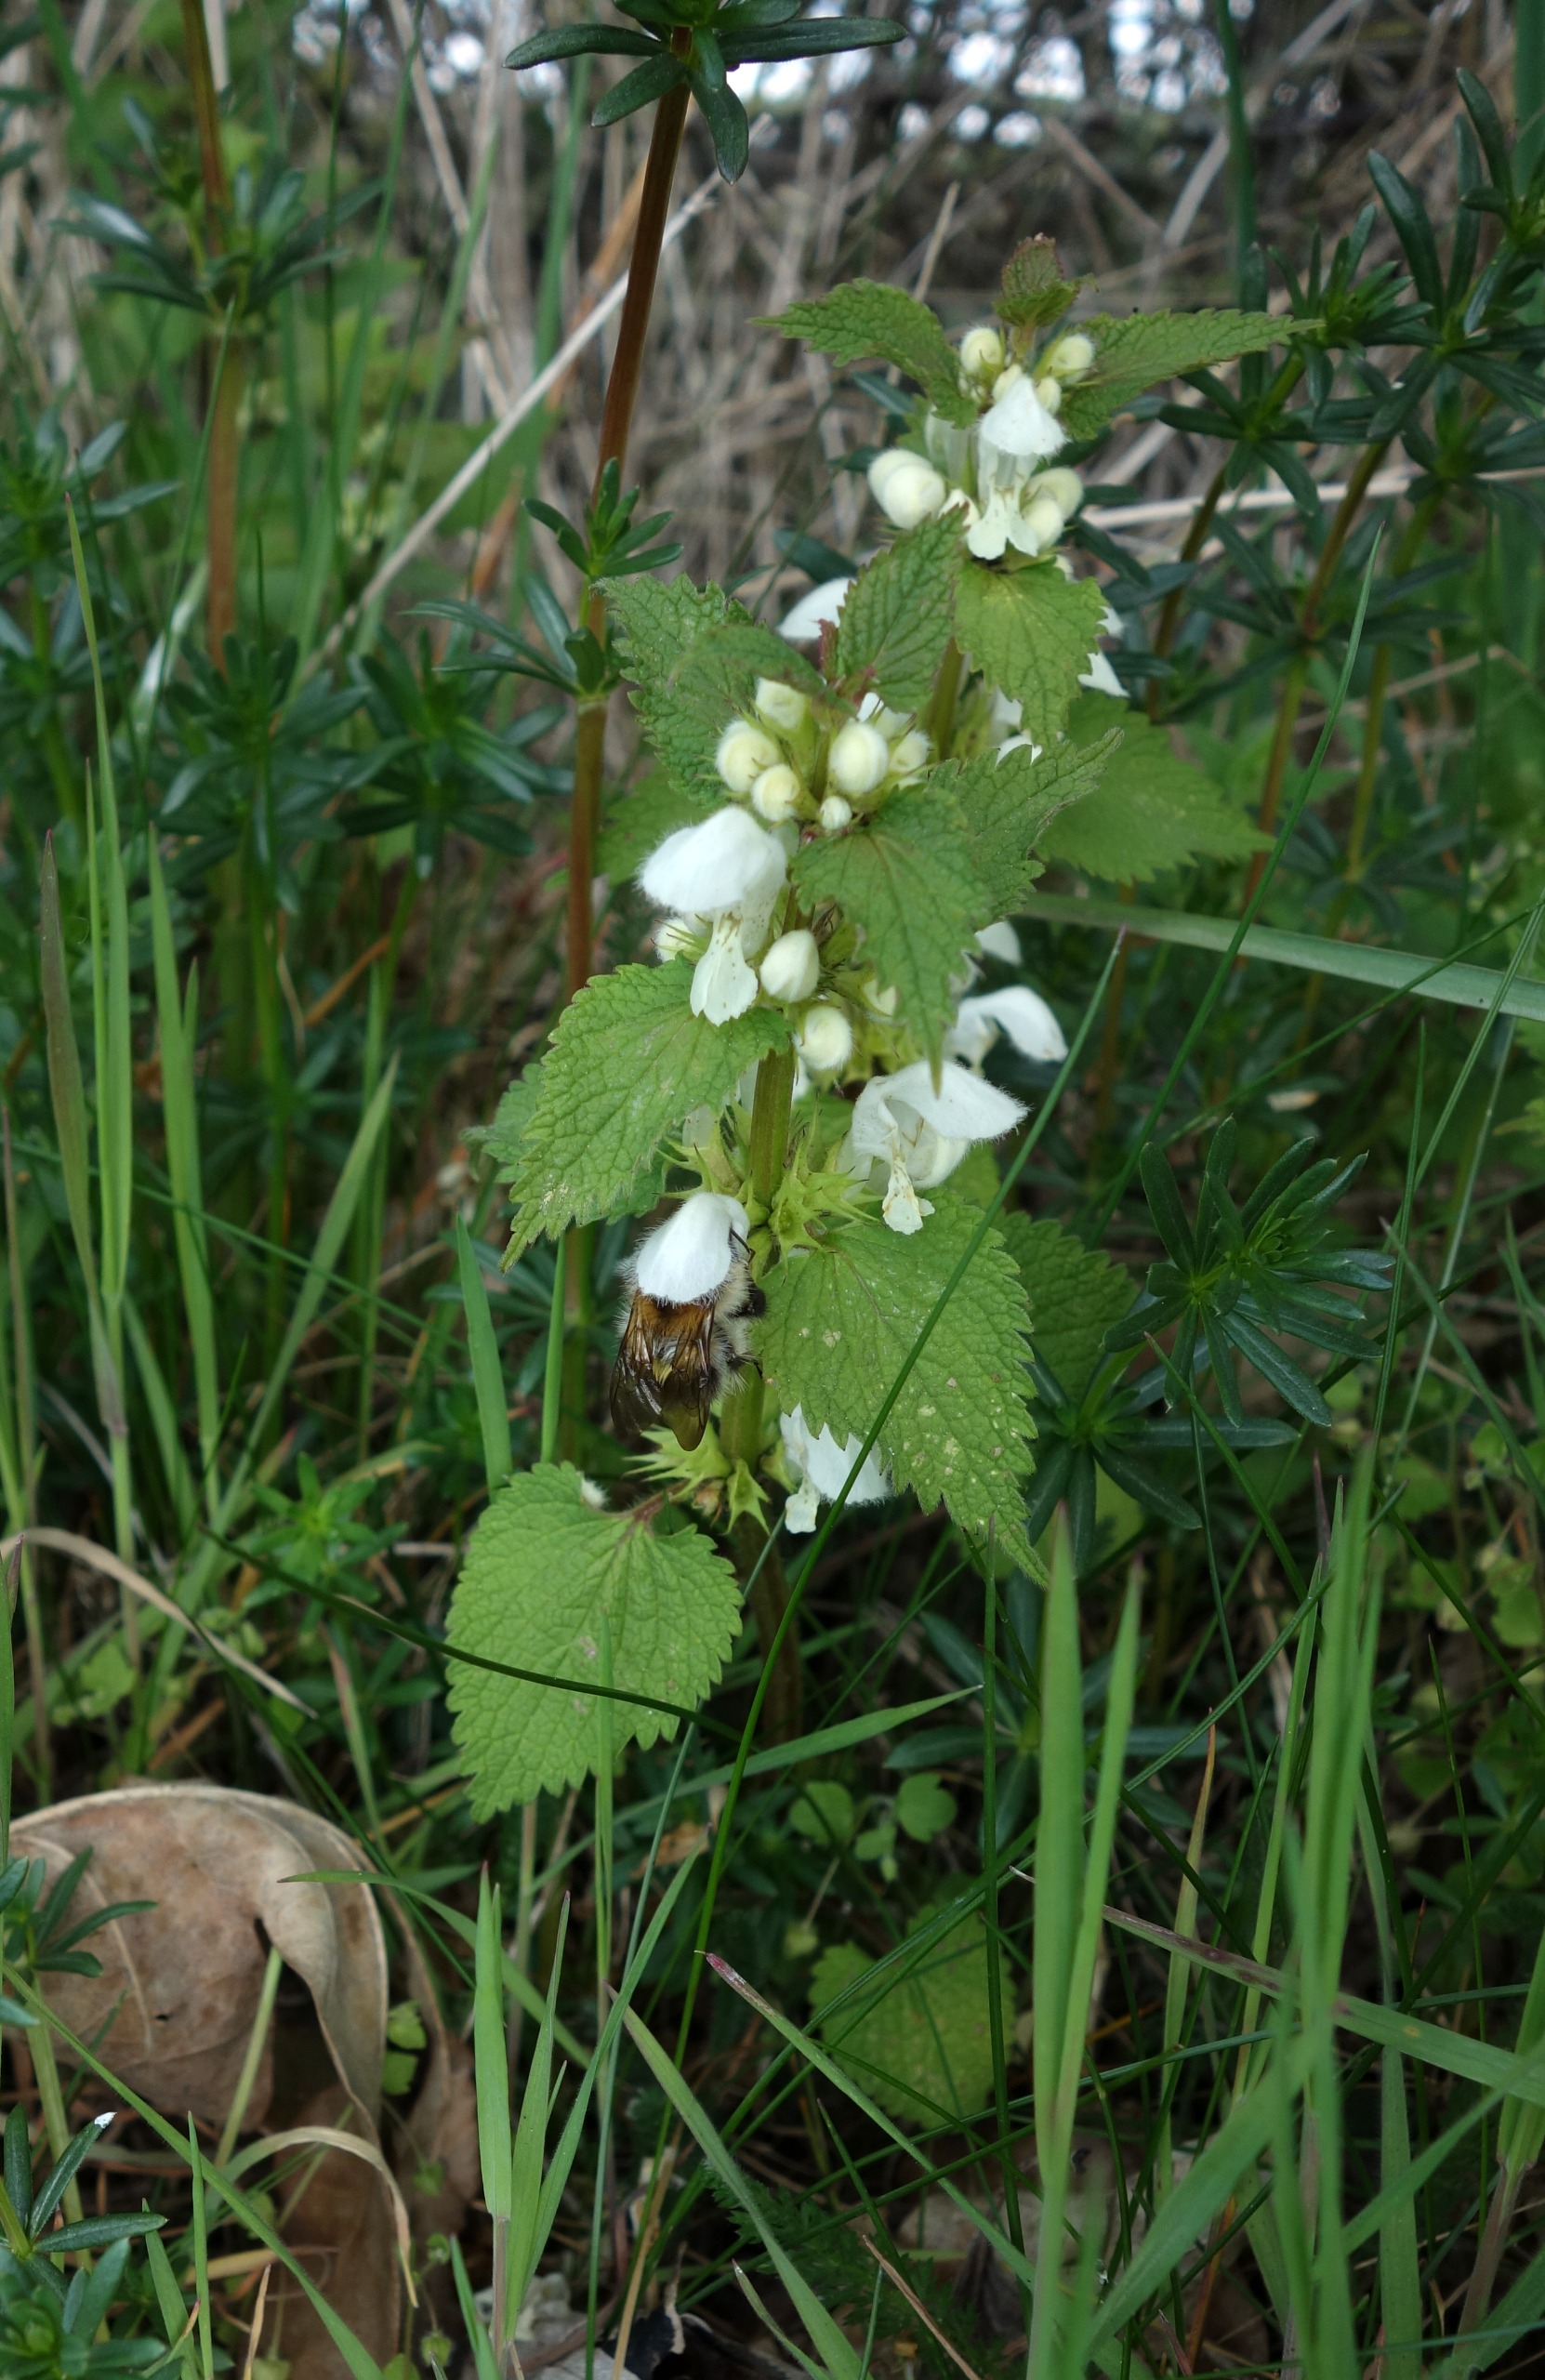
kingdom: Plantae
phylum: Tracheophyta
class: Magnoliopsida
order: Lamiales
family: Lamiaceae
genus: Lamium
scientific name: Lamium album
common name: Døvnælde
